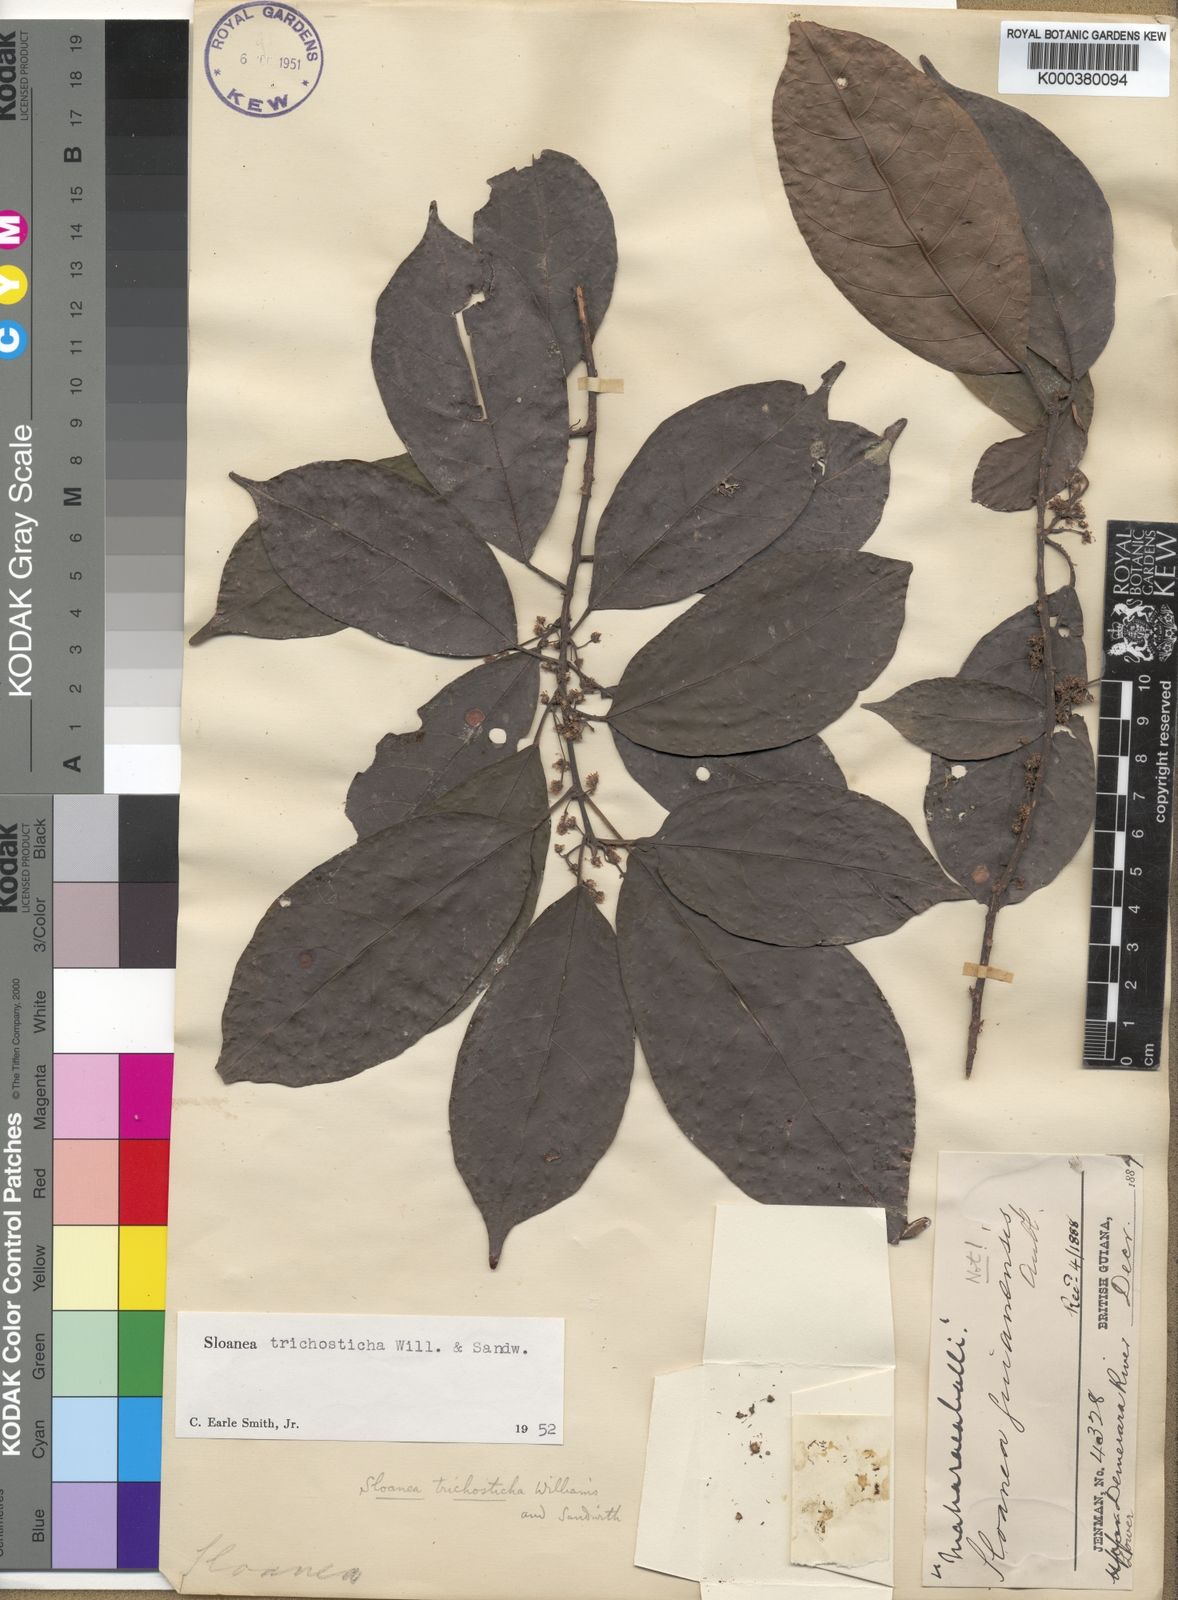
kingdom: Plantae
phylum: Tracheophyta
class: Magnoliopsida
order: Oxalidales
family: Elaeocarpaceae
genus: Sloanea
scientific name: Sloanea trichosticha
